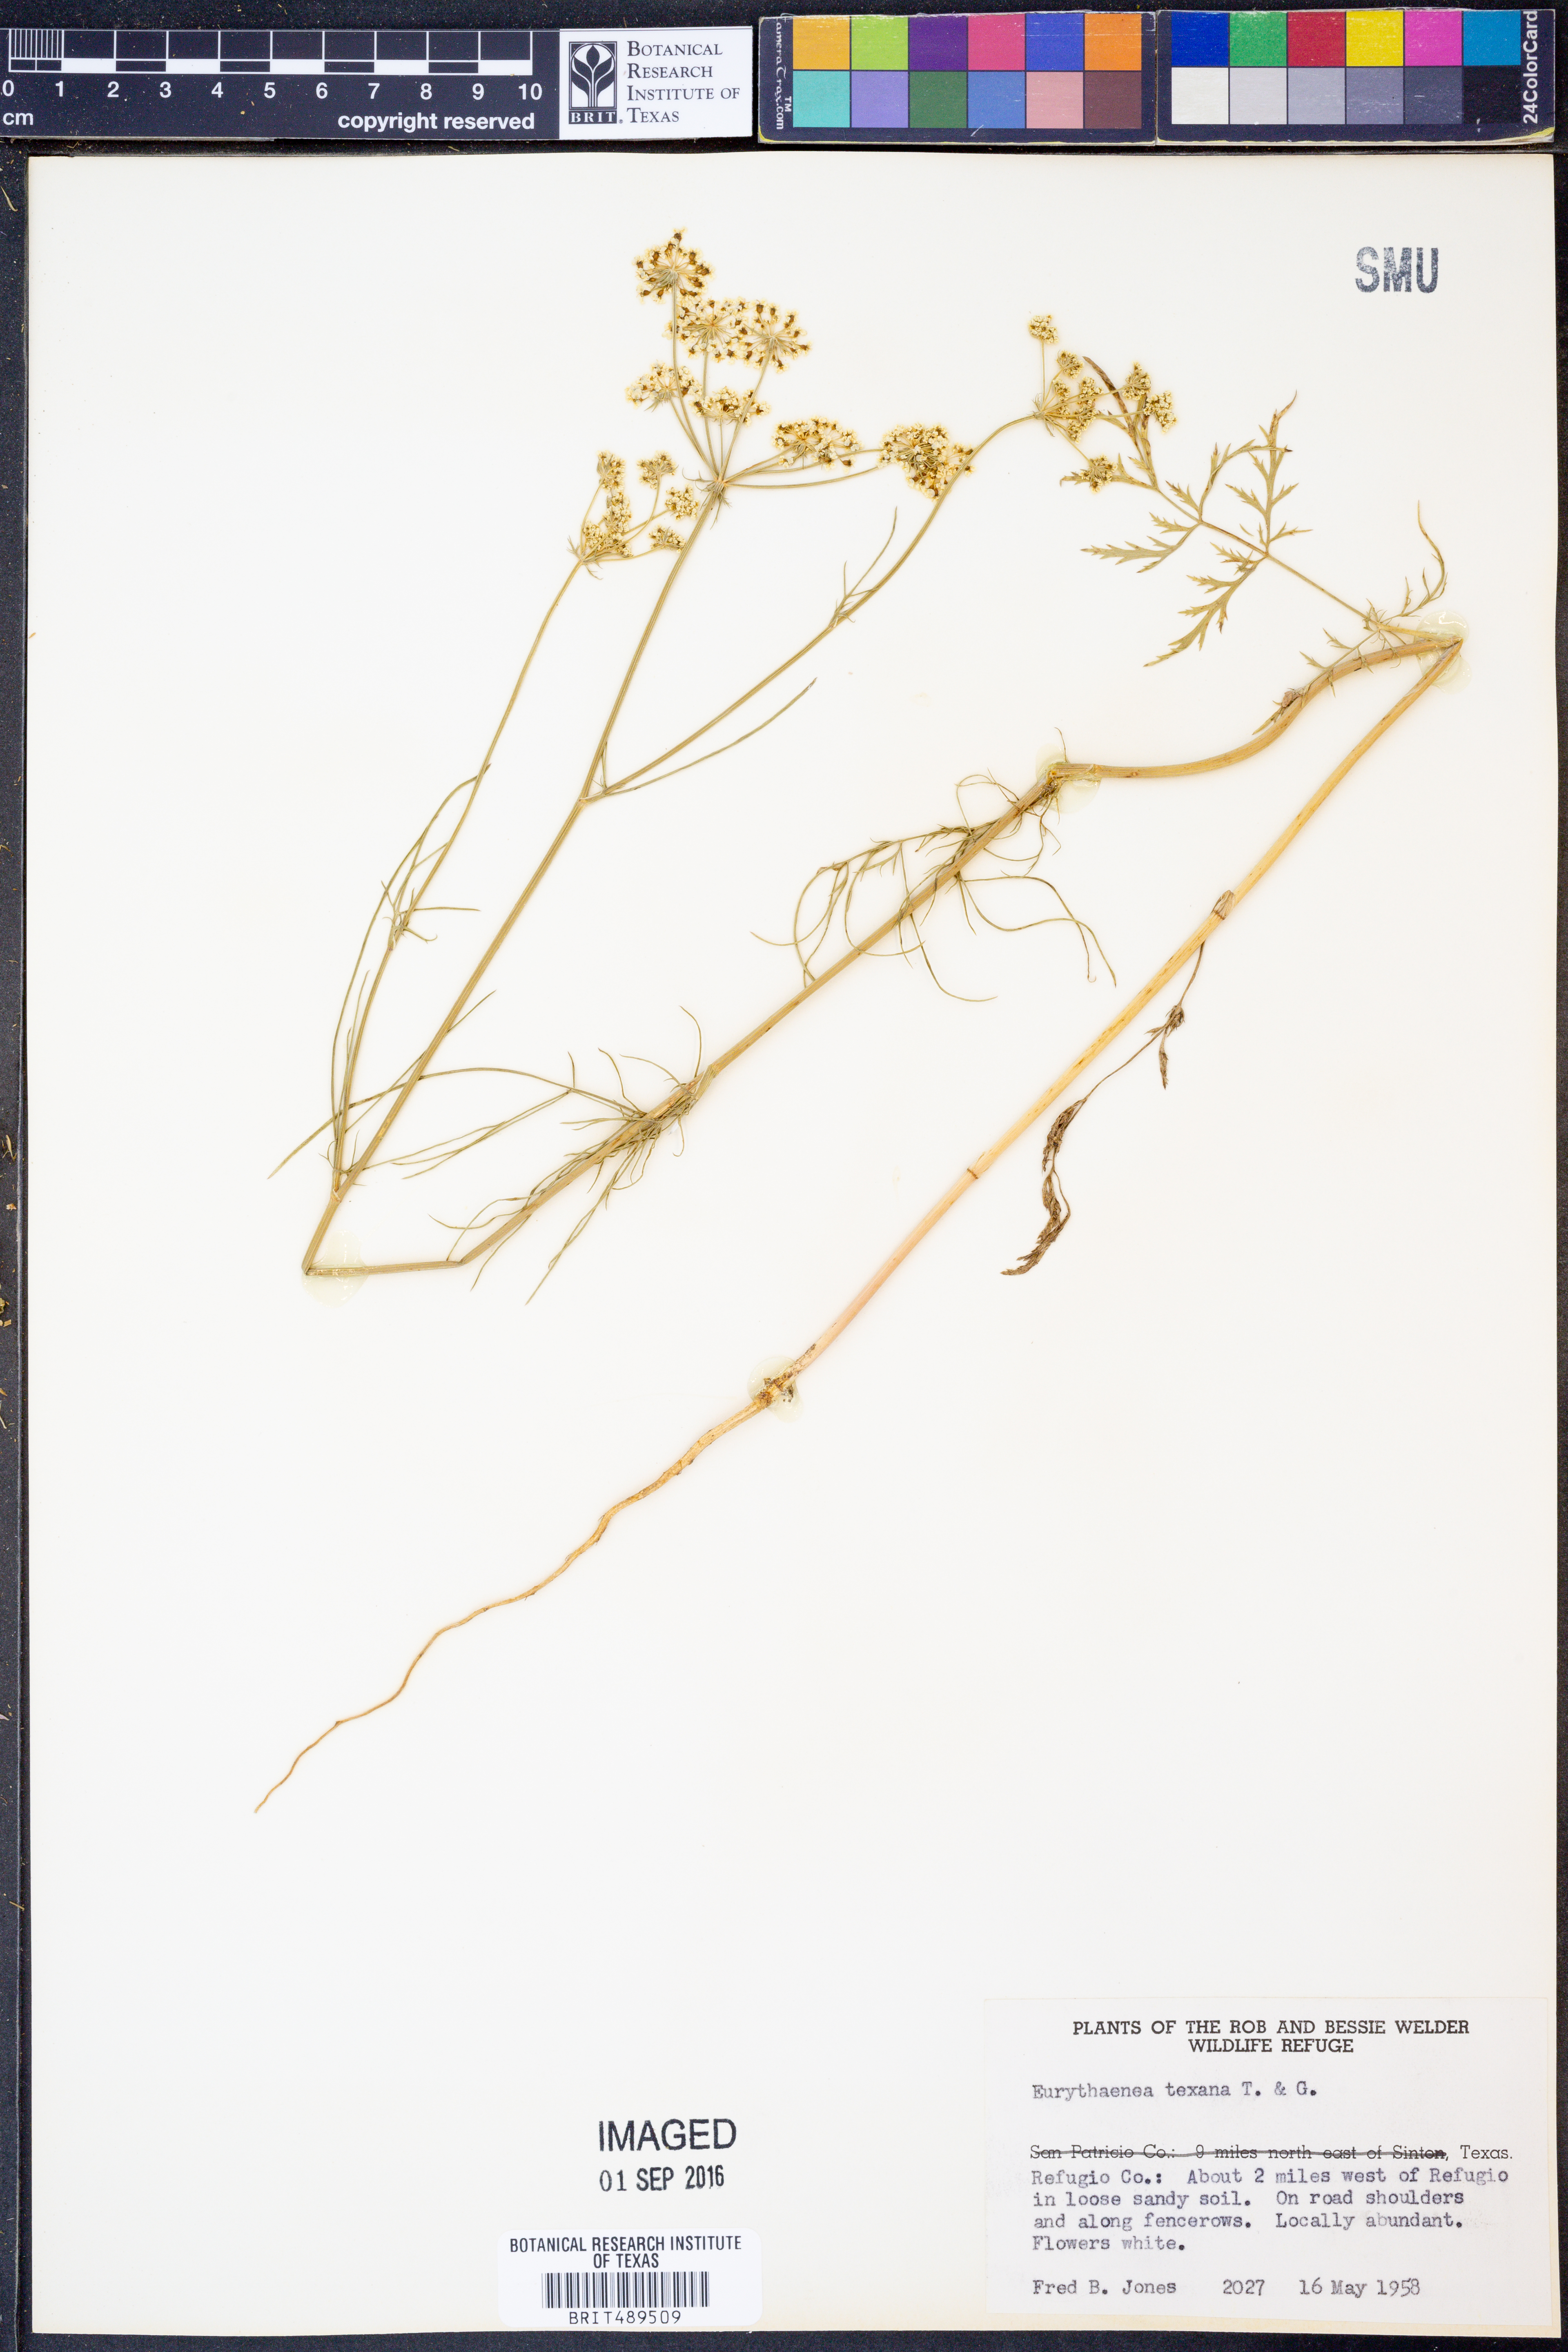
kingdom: Plantae
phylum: Tracheophyta
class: Magnoliopsida
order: Apiales
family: Apiaceae
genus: Eurytaenia
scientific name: Eurytaenia texana
